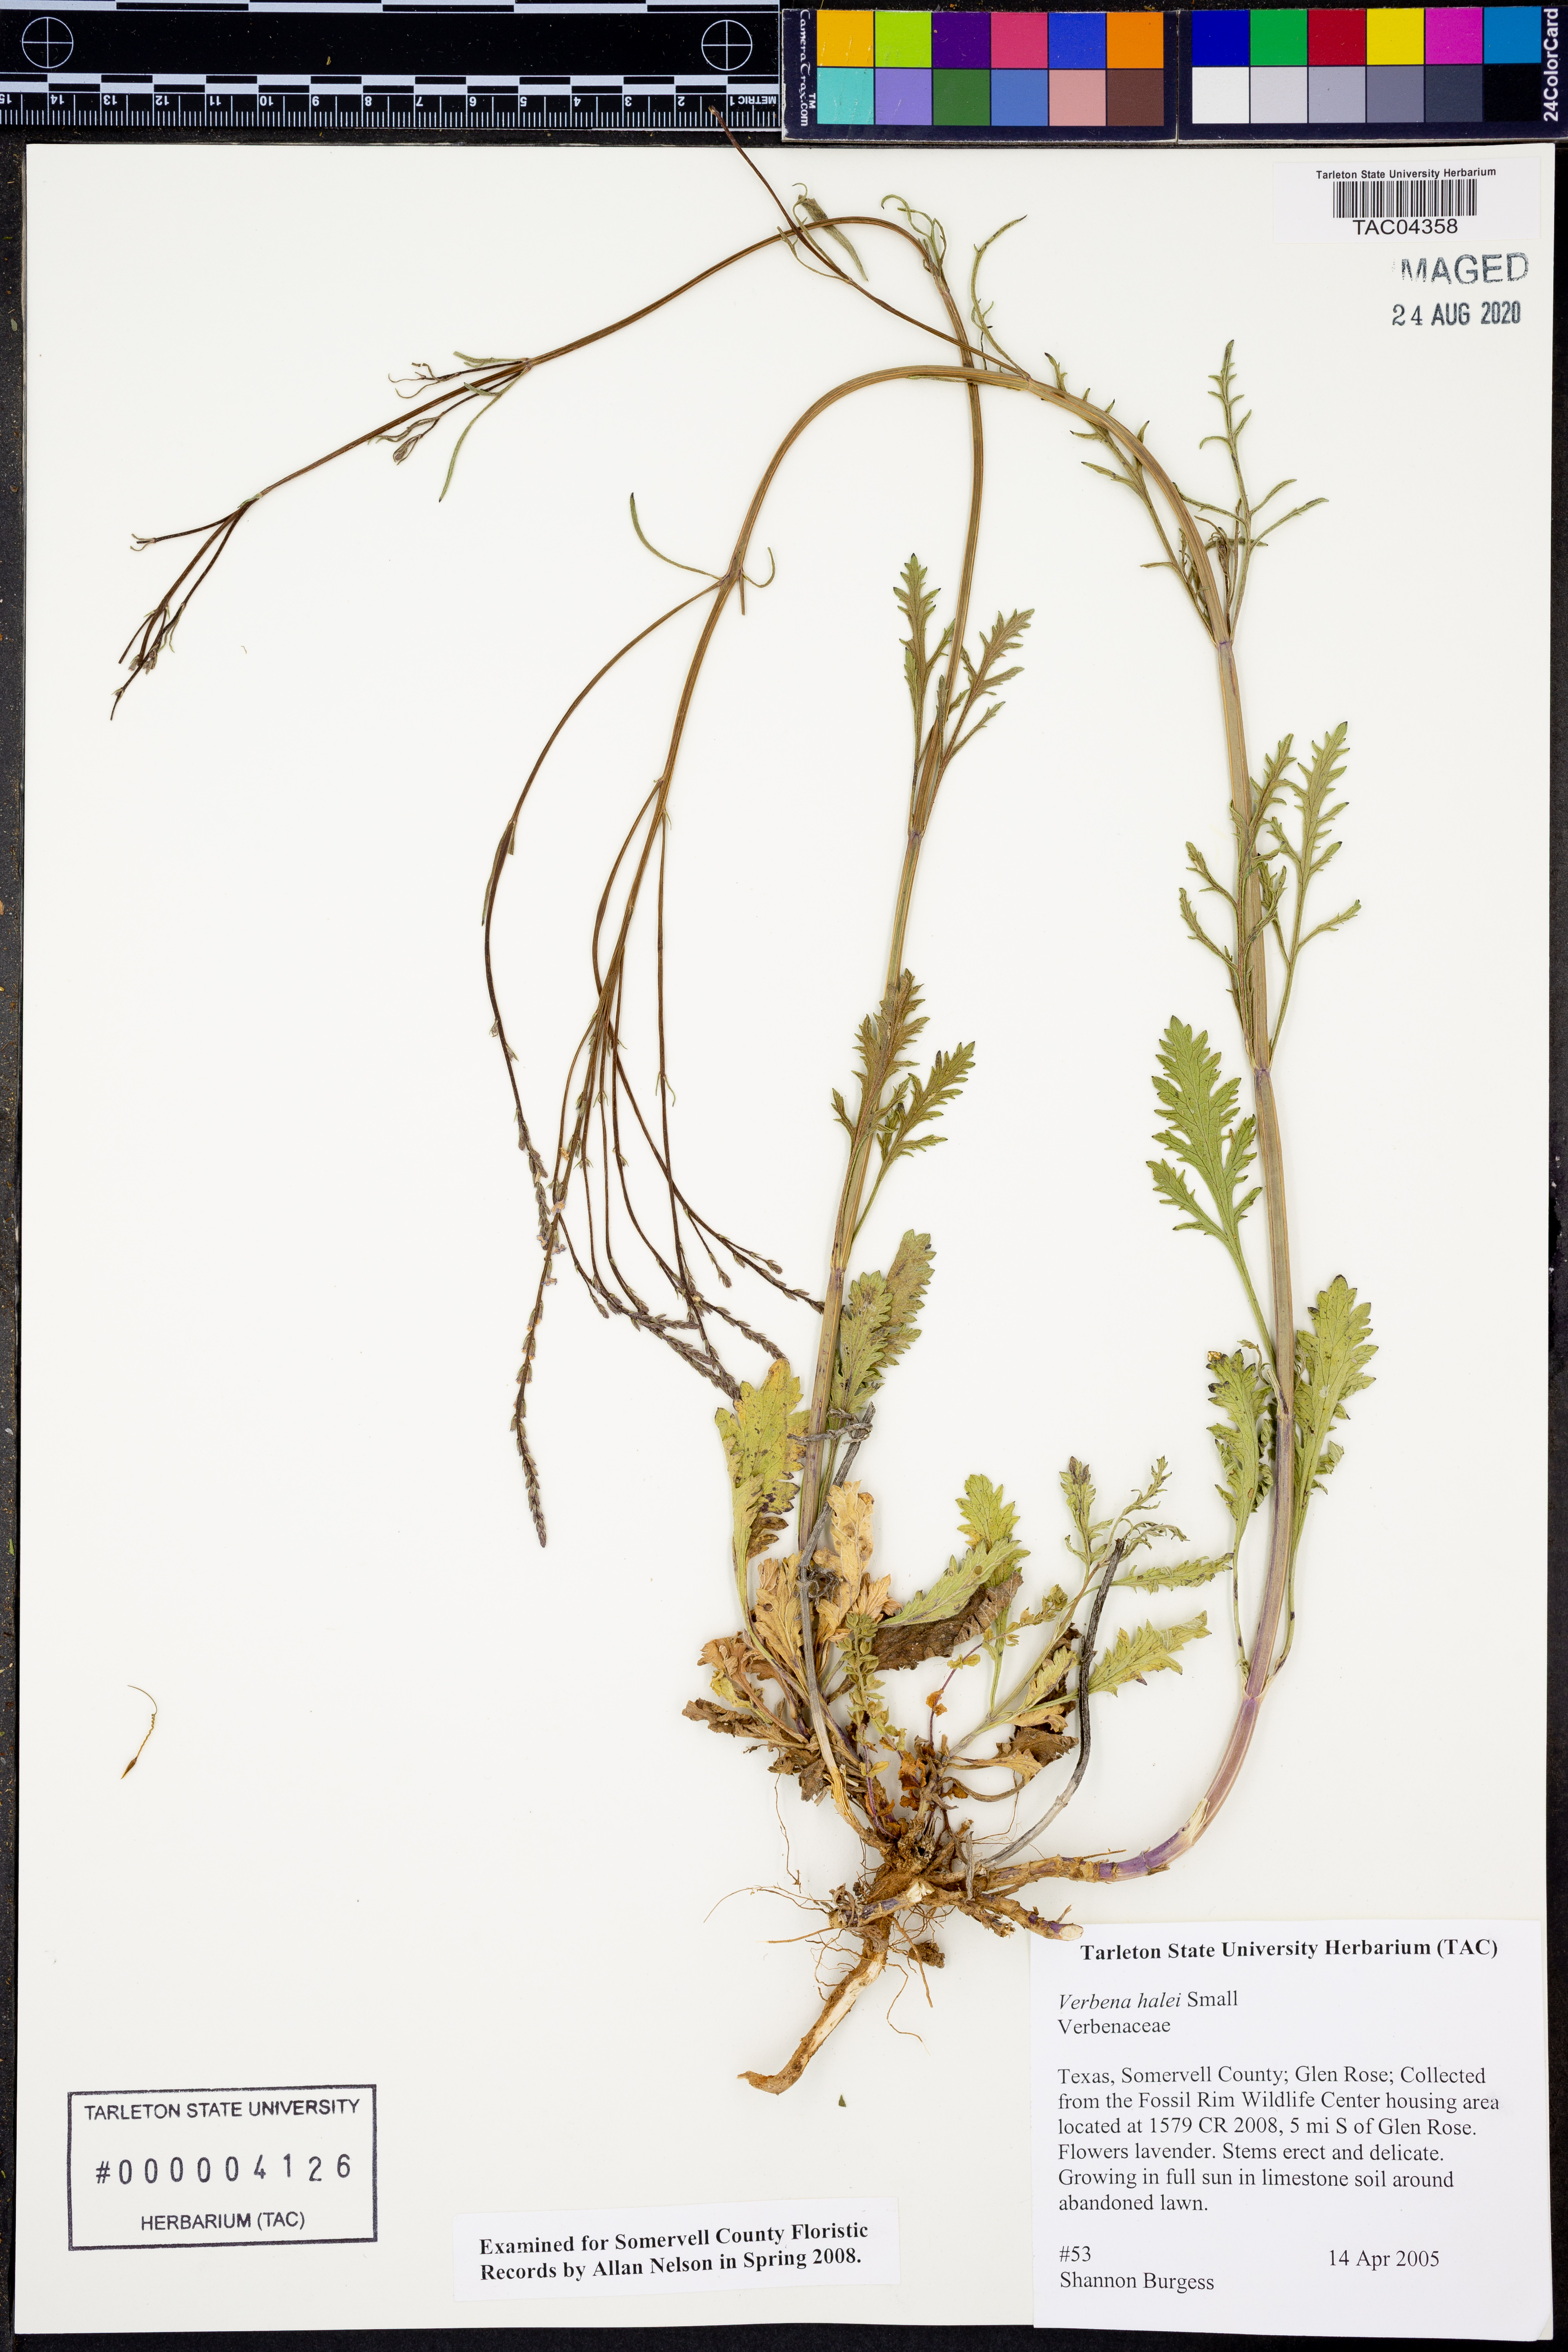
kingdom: Plantae
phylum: Tracheophyta
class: Magnoliopsida
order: Lamiales
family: Verbenaceae
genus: Verbena
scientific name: Verbena halei
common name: Texas vervain
